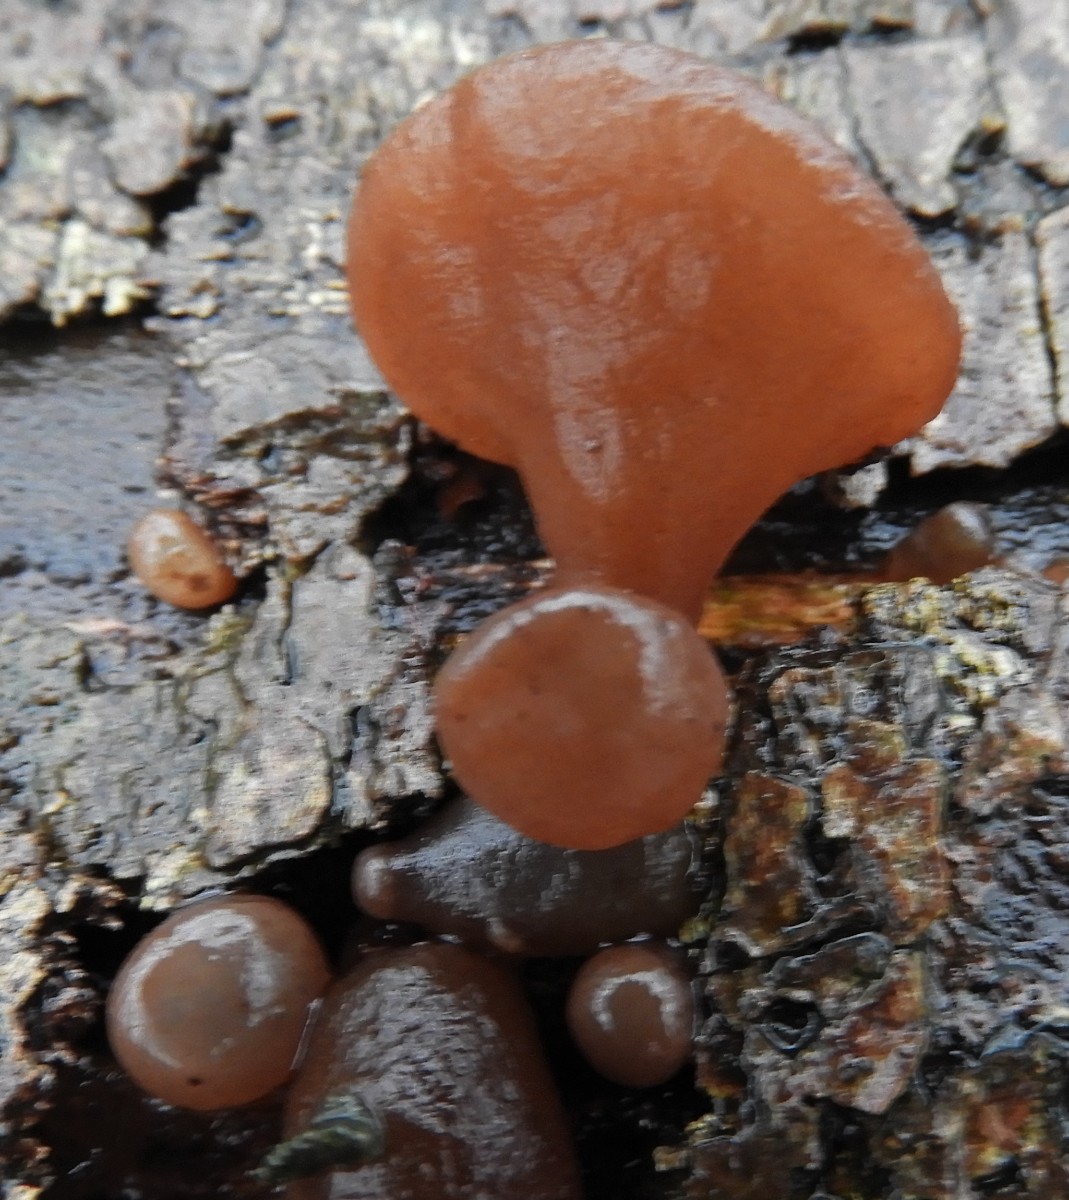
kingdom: Fungi
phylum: Basidiomycota
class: Agaricomycetes
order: Auriculariales
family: Auriculariaceae
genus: Auricularia
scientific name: Auricularia auricula-judae
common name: almindelig judasøre
